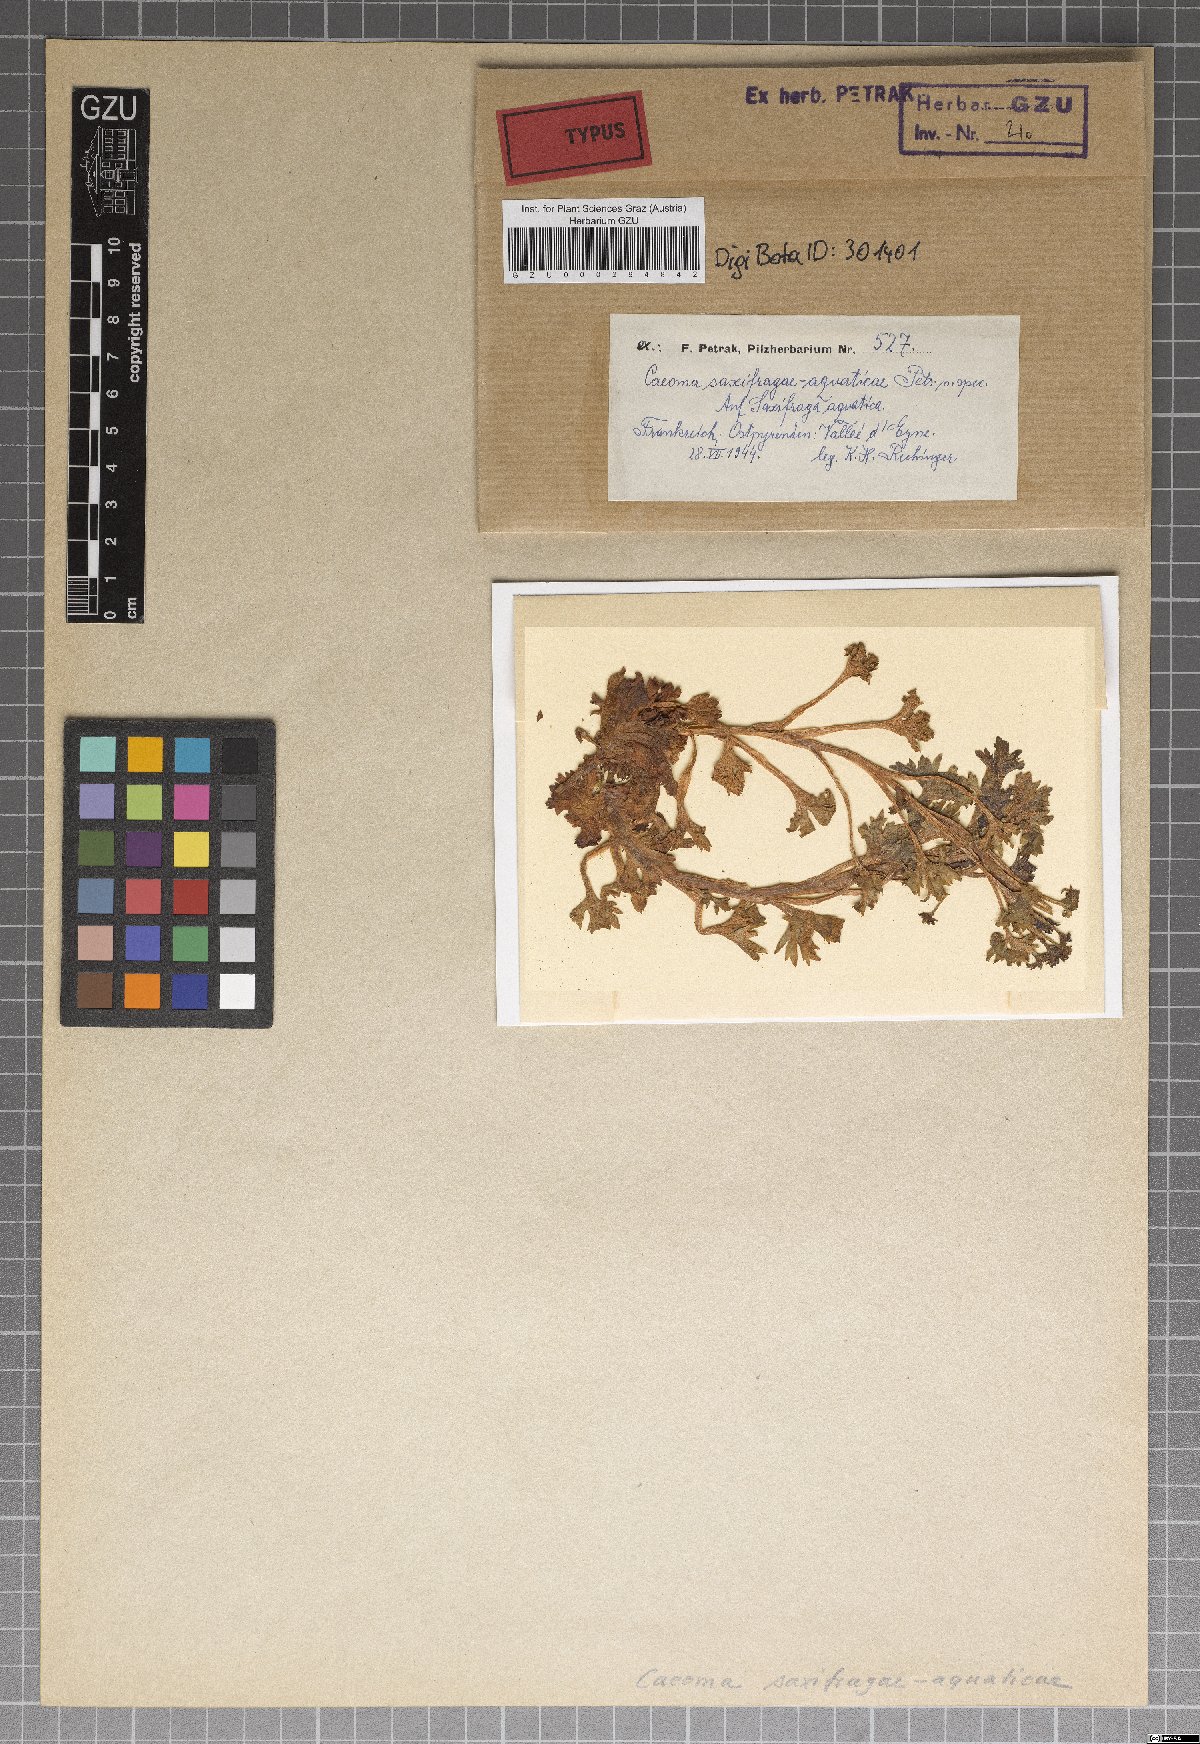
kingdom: Fungi
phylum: Basidiomycota
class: Pucciniomycetes
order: Pucciniales
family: Pucciniaceae
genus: Caeoma
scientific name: Caeoma saxifragae-aquaticae
